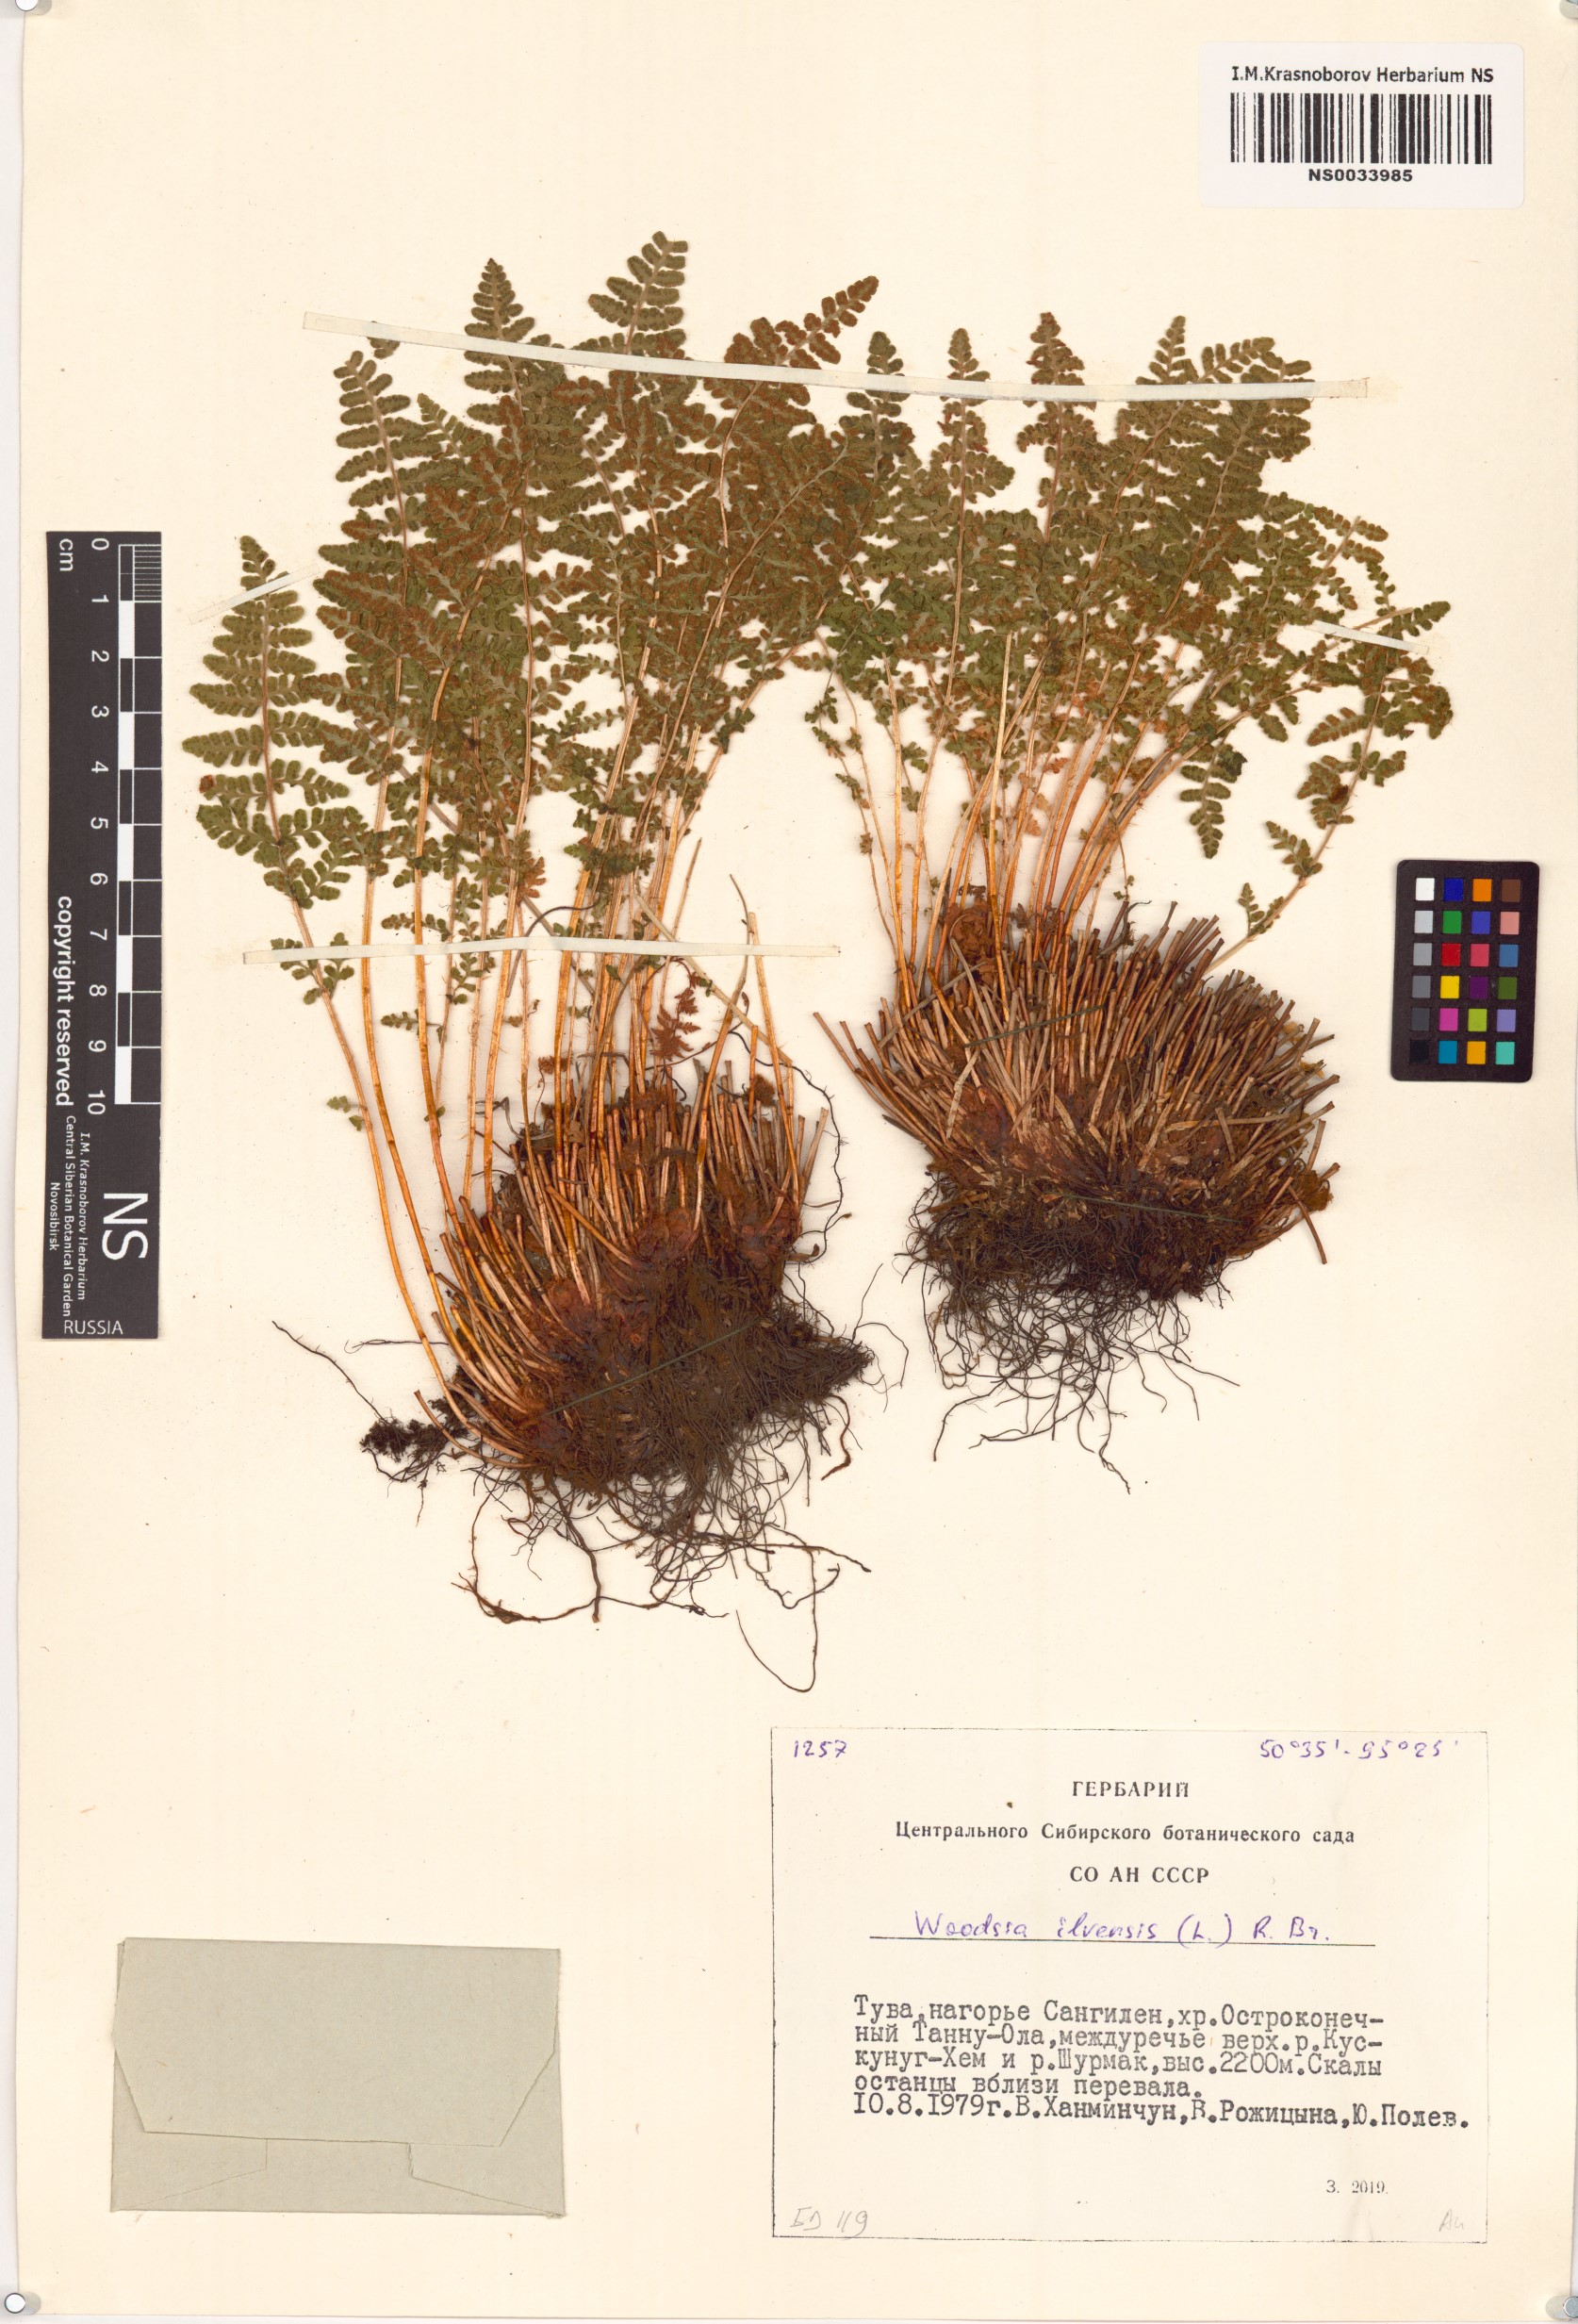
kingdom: Plantae
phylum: Tracheophyta
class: Polypodiopsida
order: Polypodiales
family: Woodsiaceae
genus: Woodsia
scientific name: Woodsia ilvensis
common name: Fragrant woodsia
